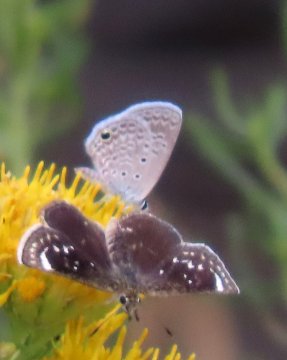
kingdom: Animalia
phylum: Arthropoda
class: Insecta
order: Lepidoptera
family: Lycaenidae
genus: Hemiargus
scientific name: Hemiargus ceraunus
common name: Ceraunus Blue
